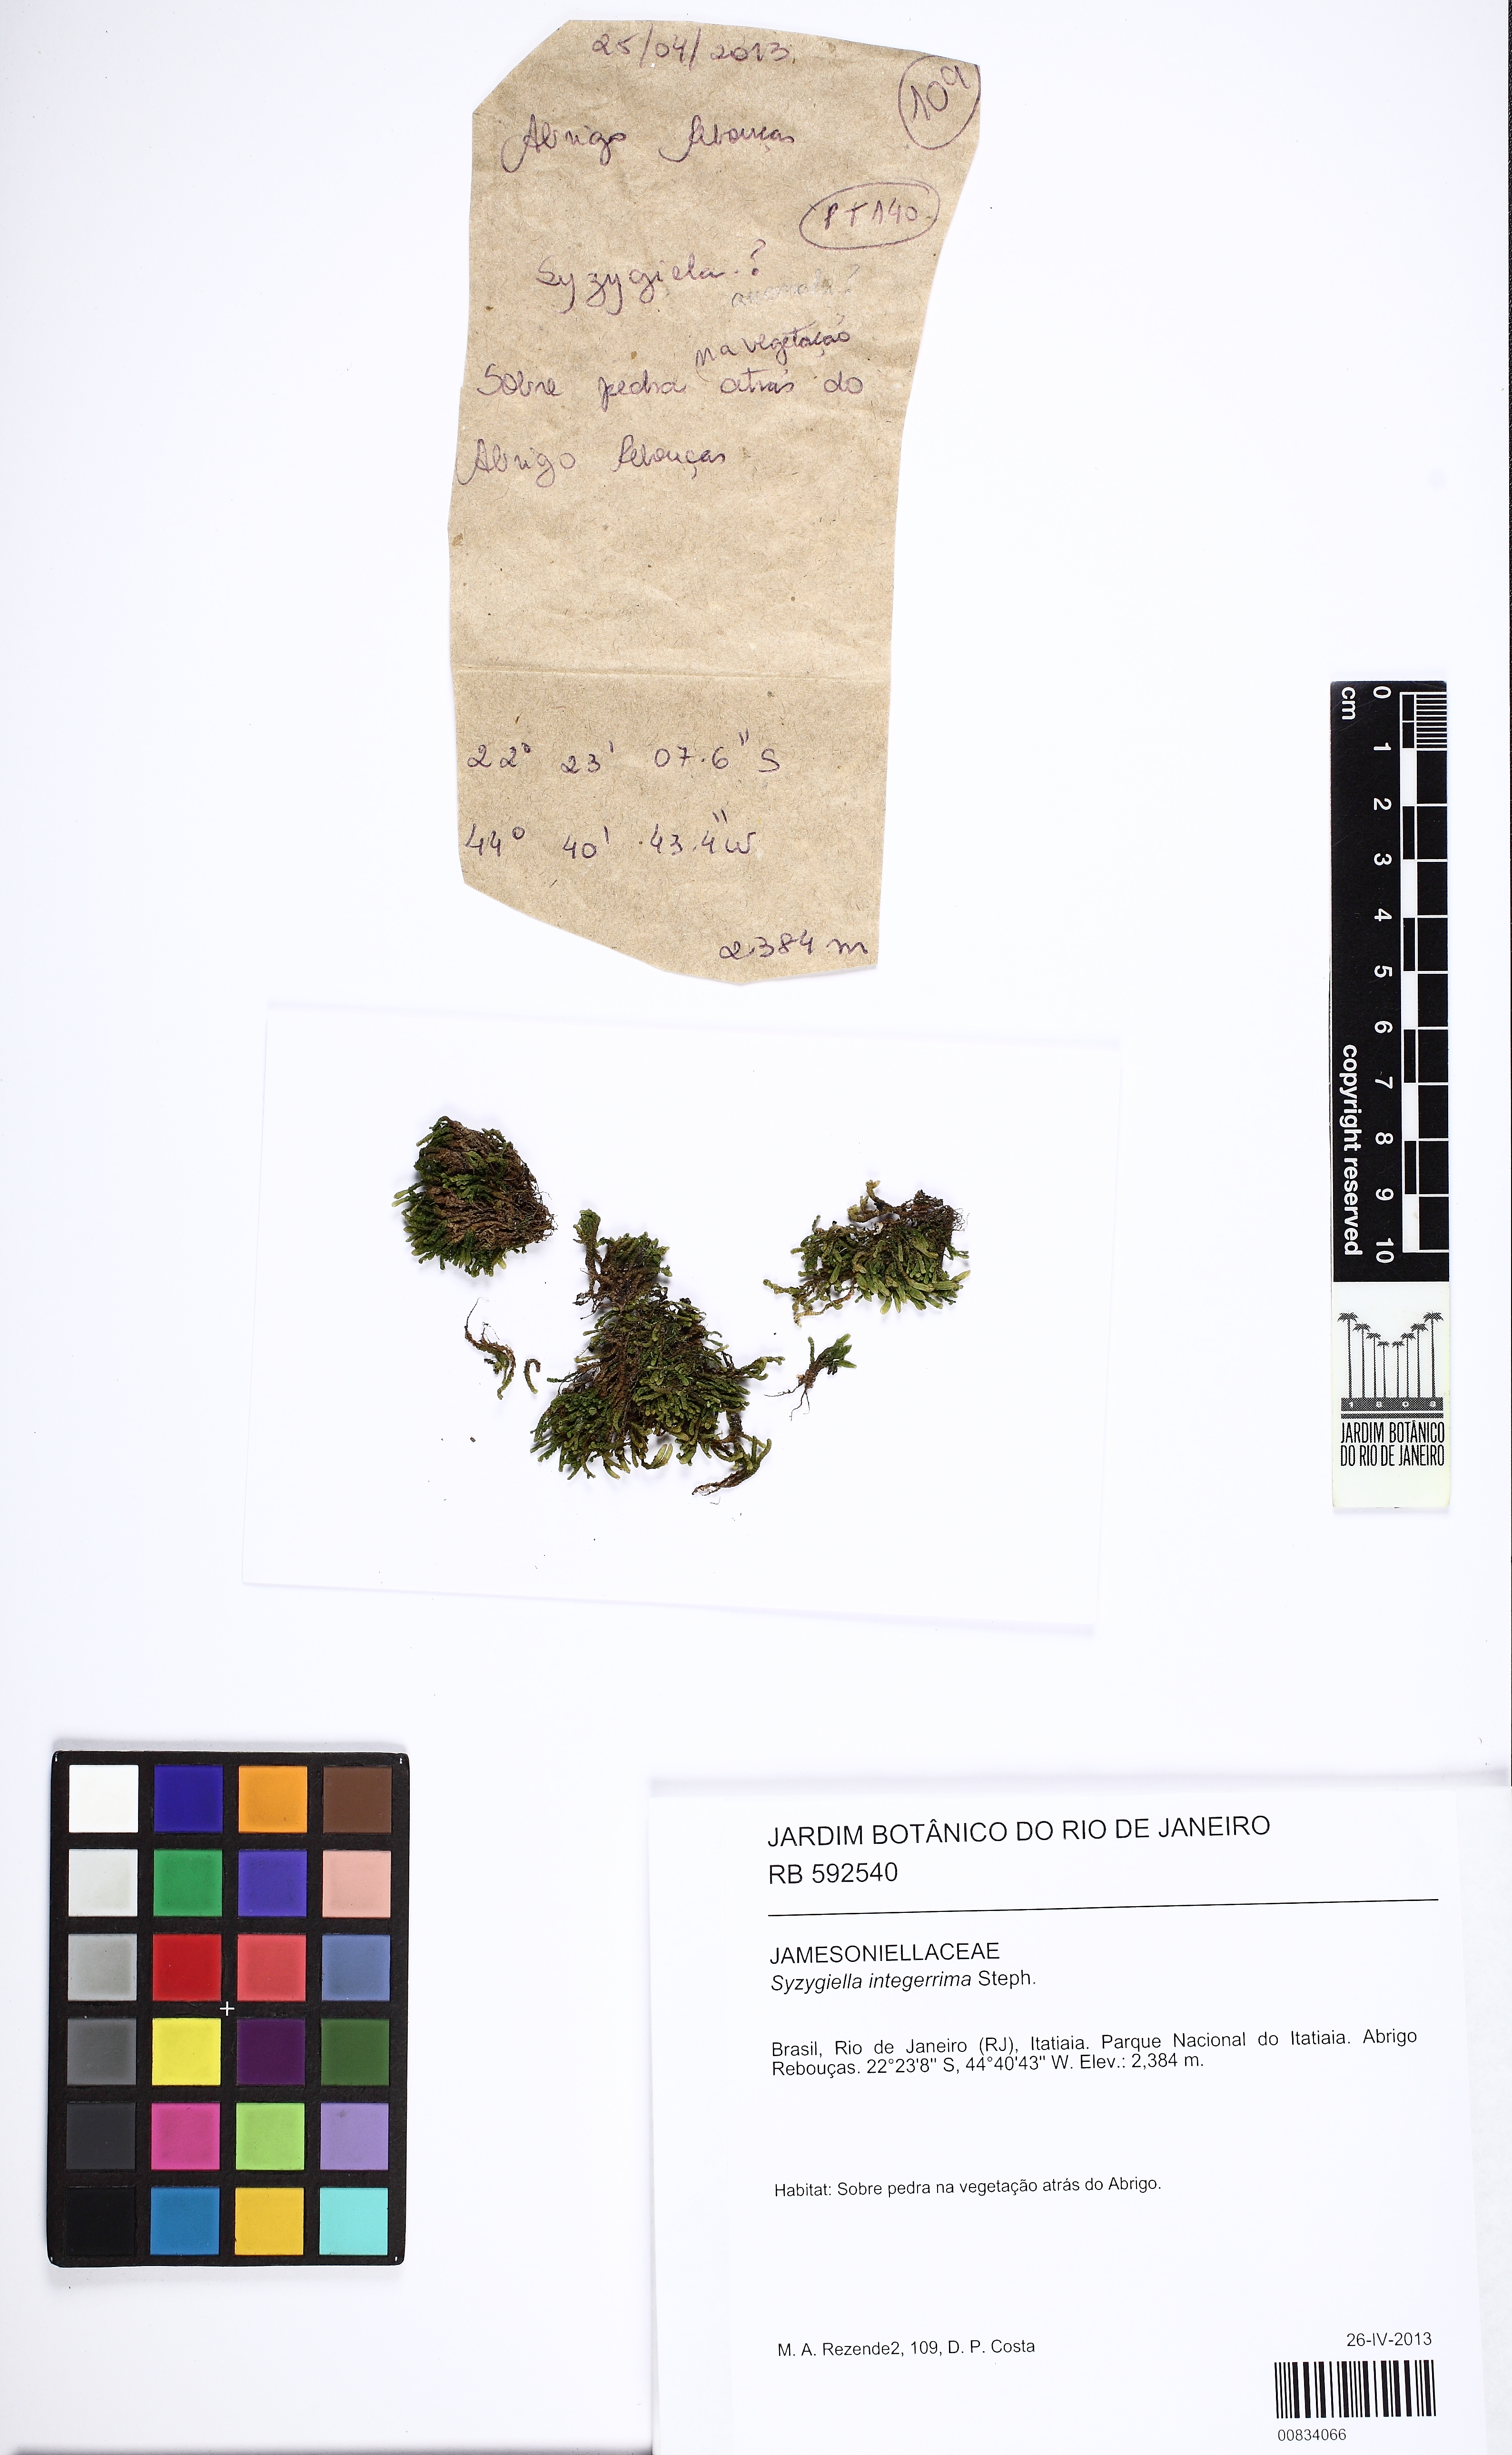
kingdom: Plantae
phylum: Marchantiophyta
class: Jungermanniopsida
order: Jungermanniales
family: Adelanthaceae
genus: Syzygiella
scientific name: Syzygiella contigua
